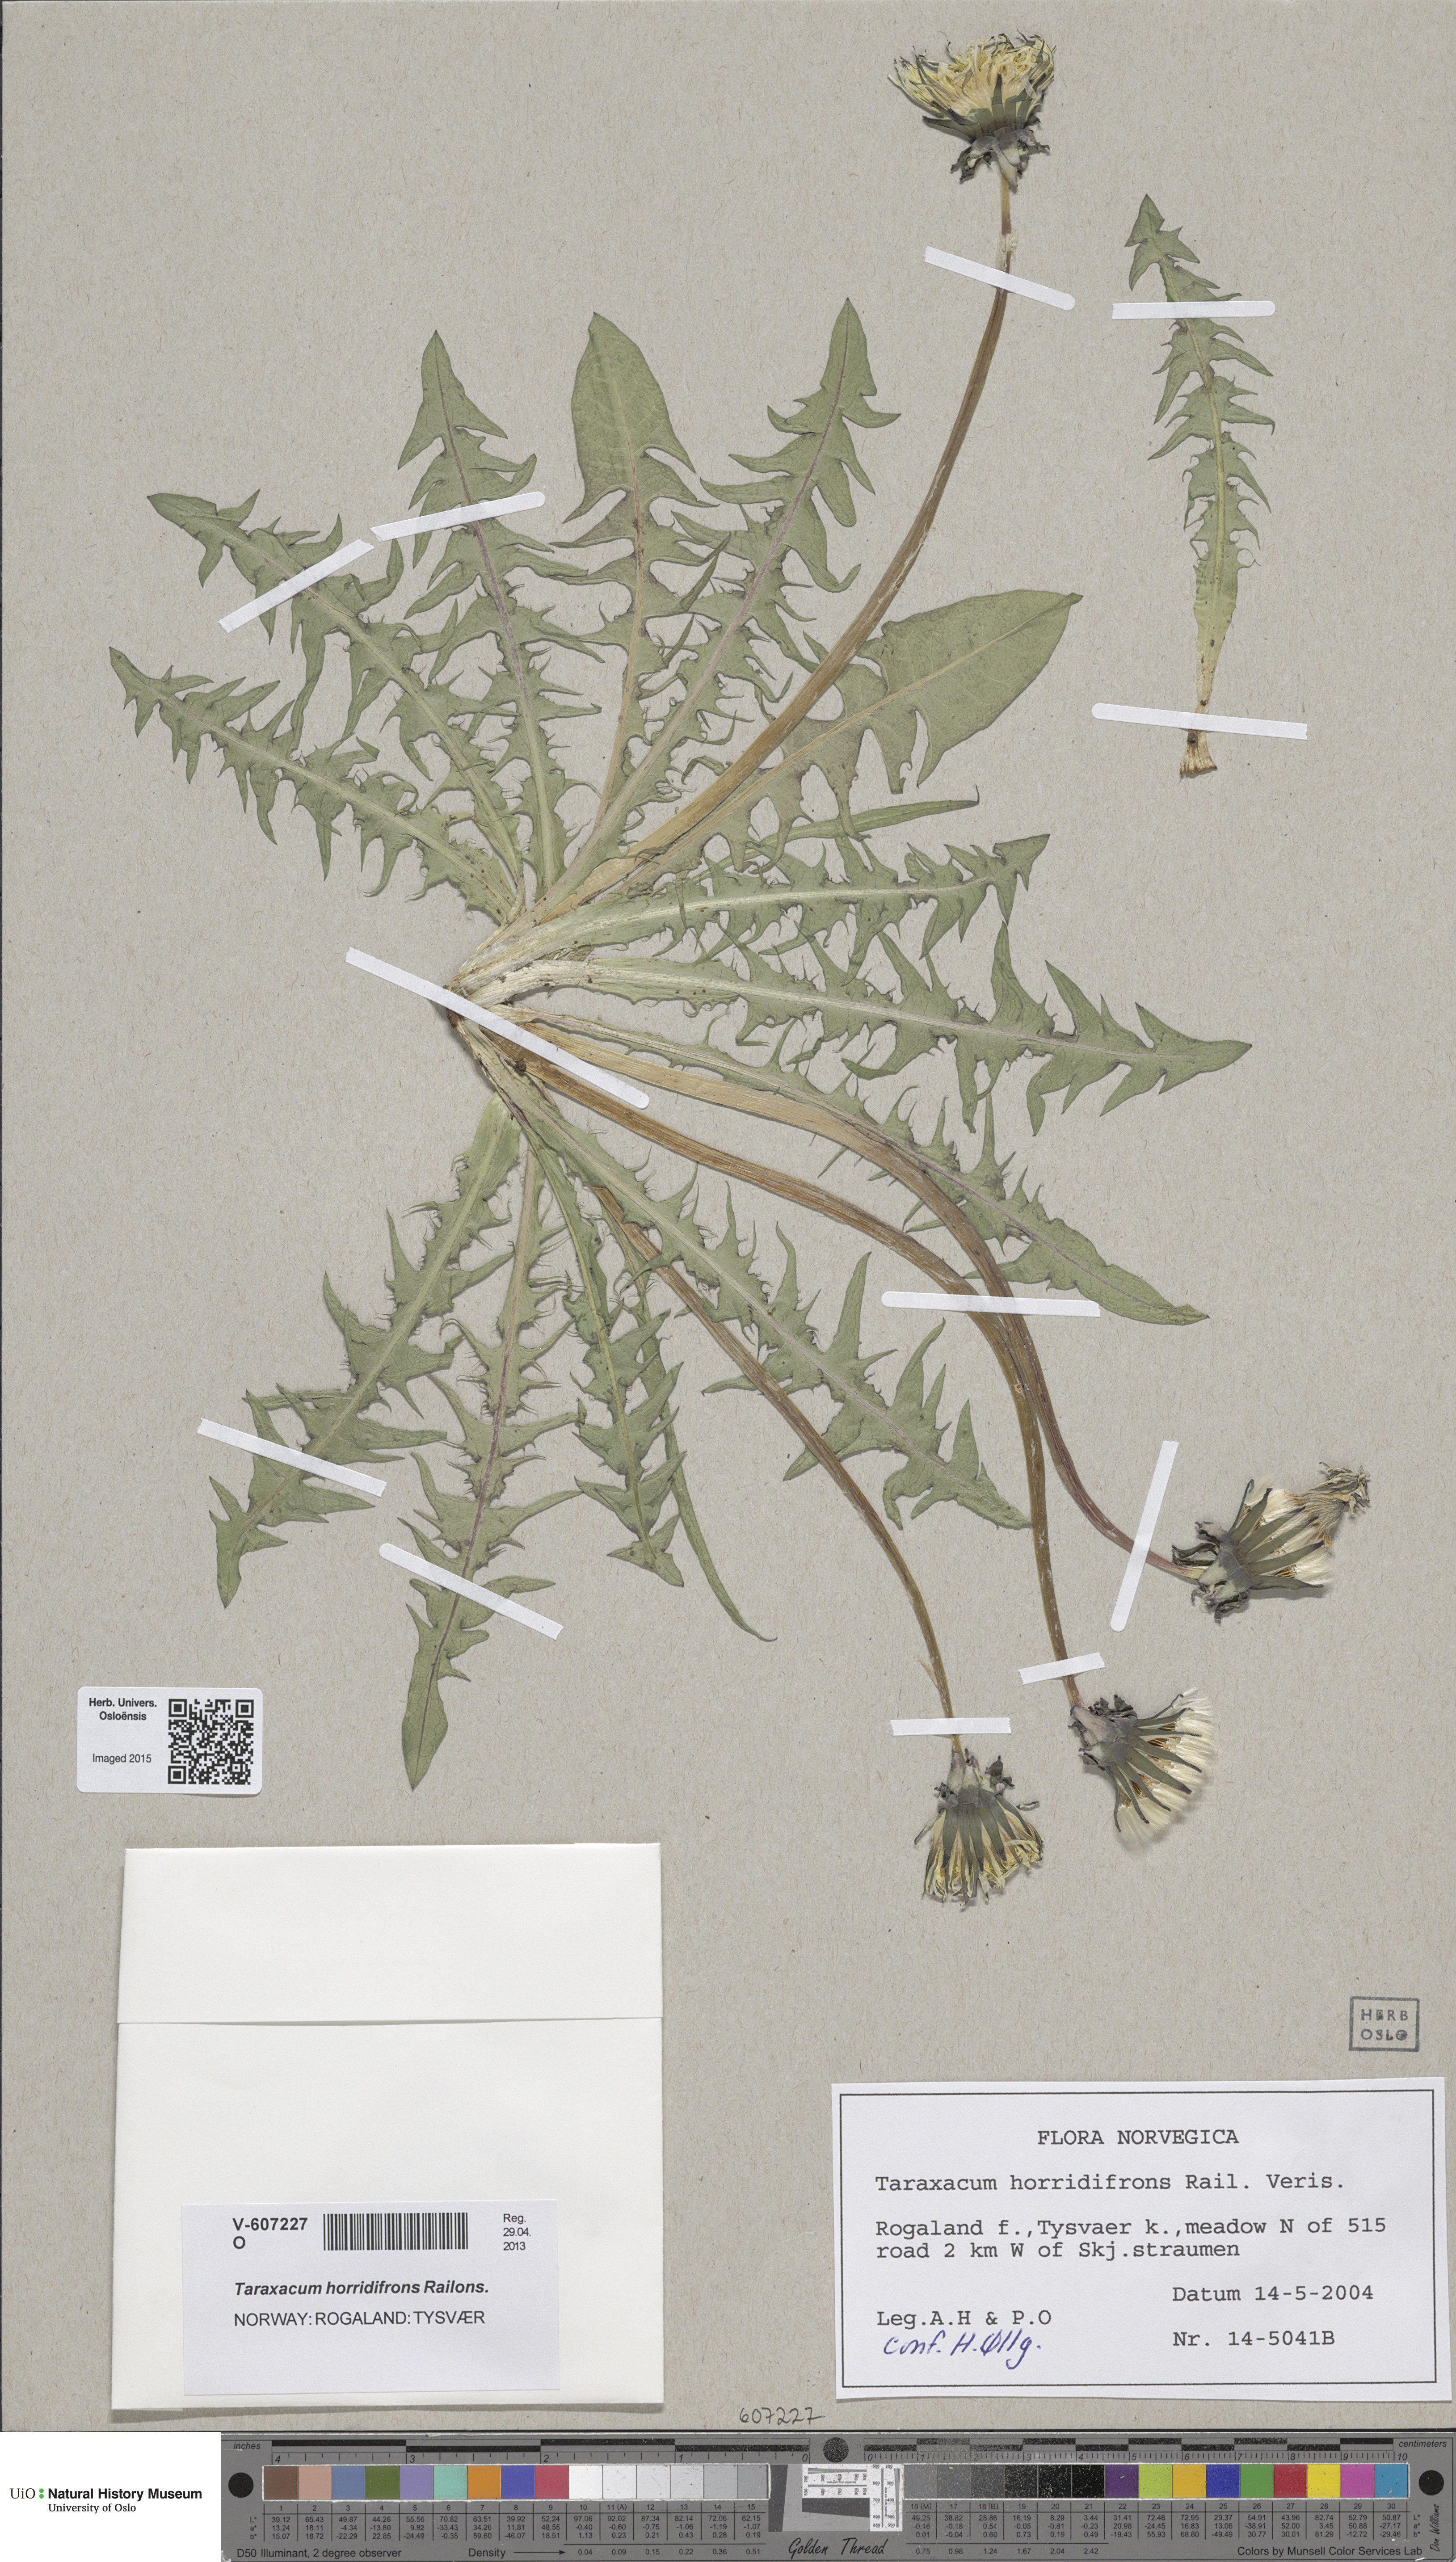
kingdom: Plantae
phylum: Tracheophyta
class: Magnoliopsida
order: Asterales
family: Asteraceae
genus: Taraxacum
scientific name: Taraxacum horridifrons
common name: Prickly-leaved dandelion
